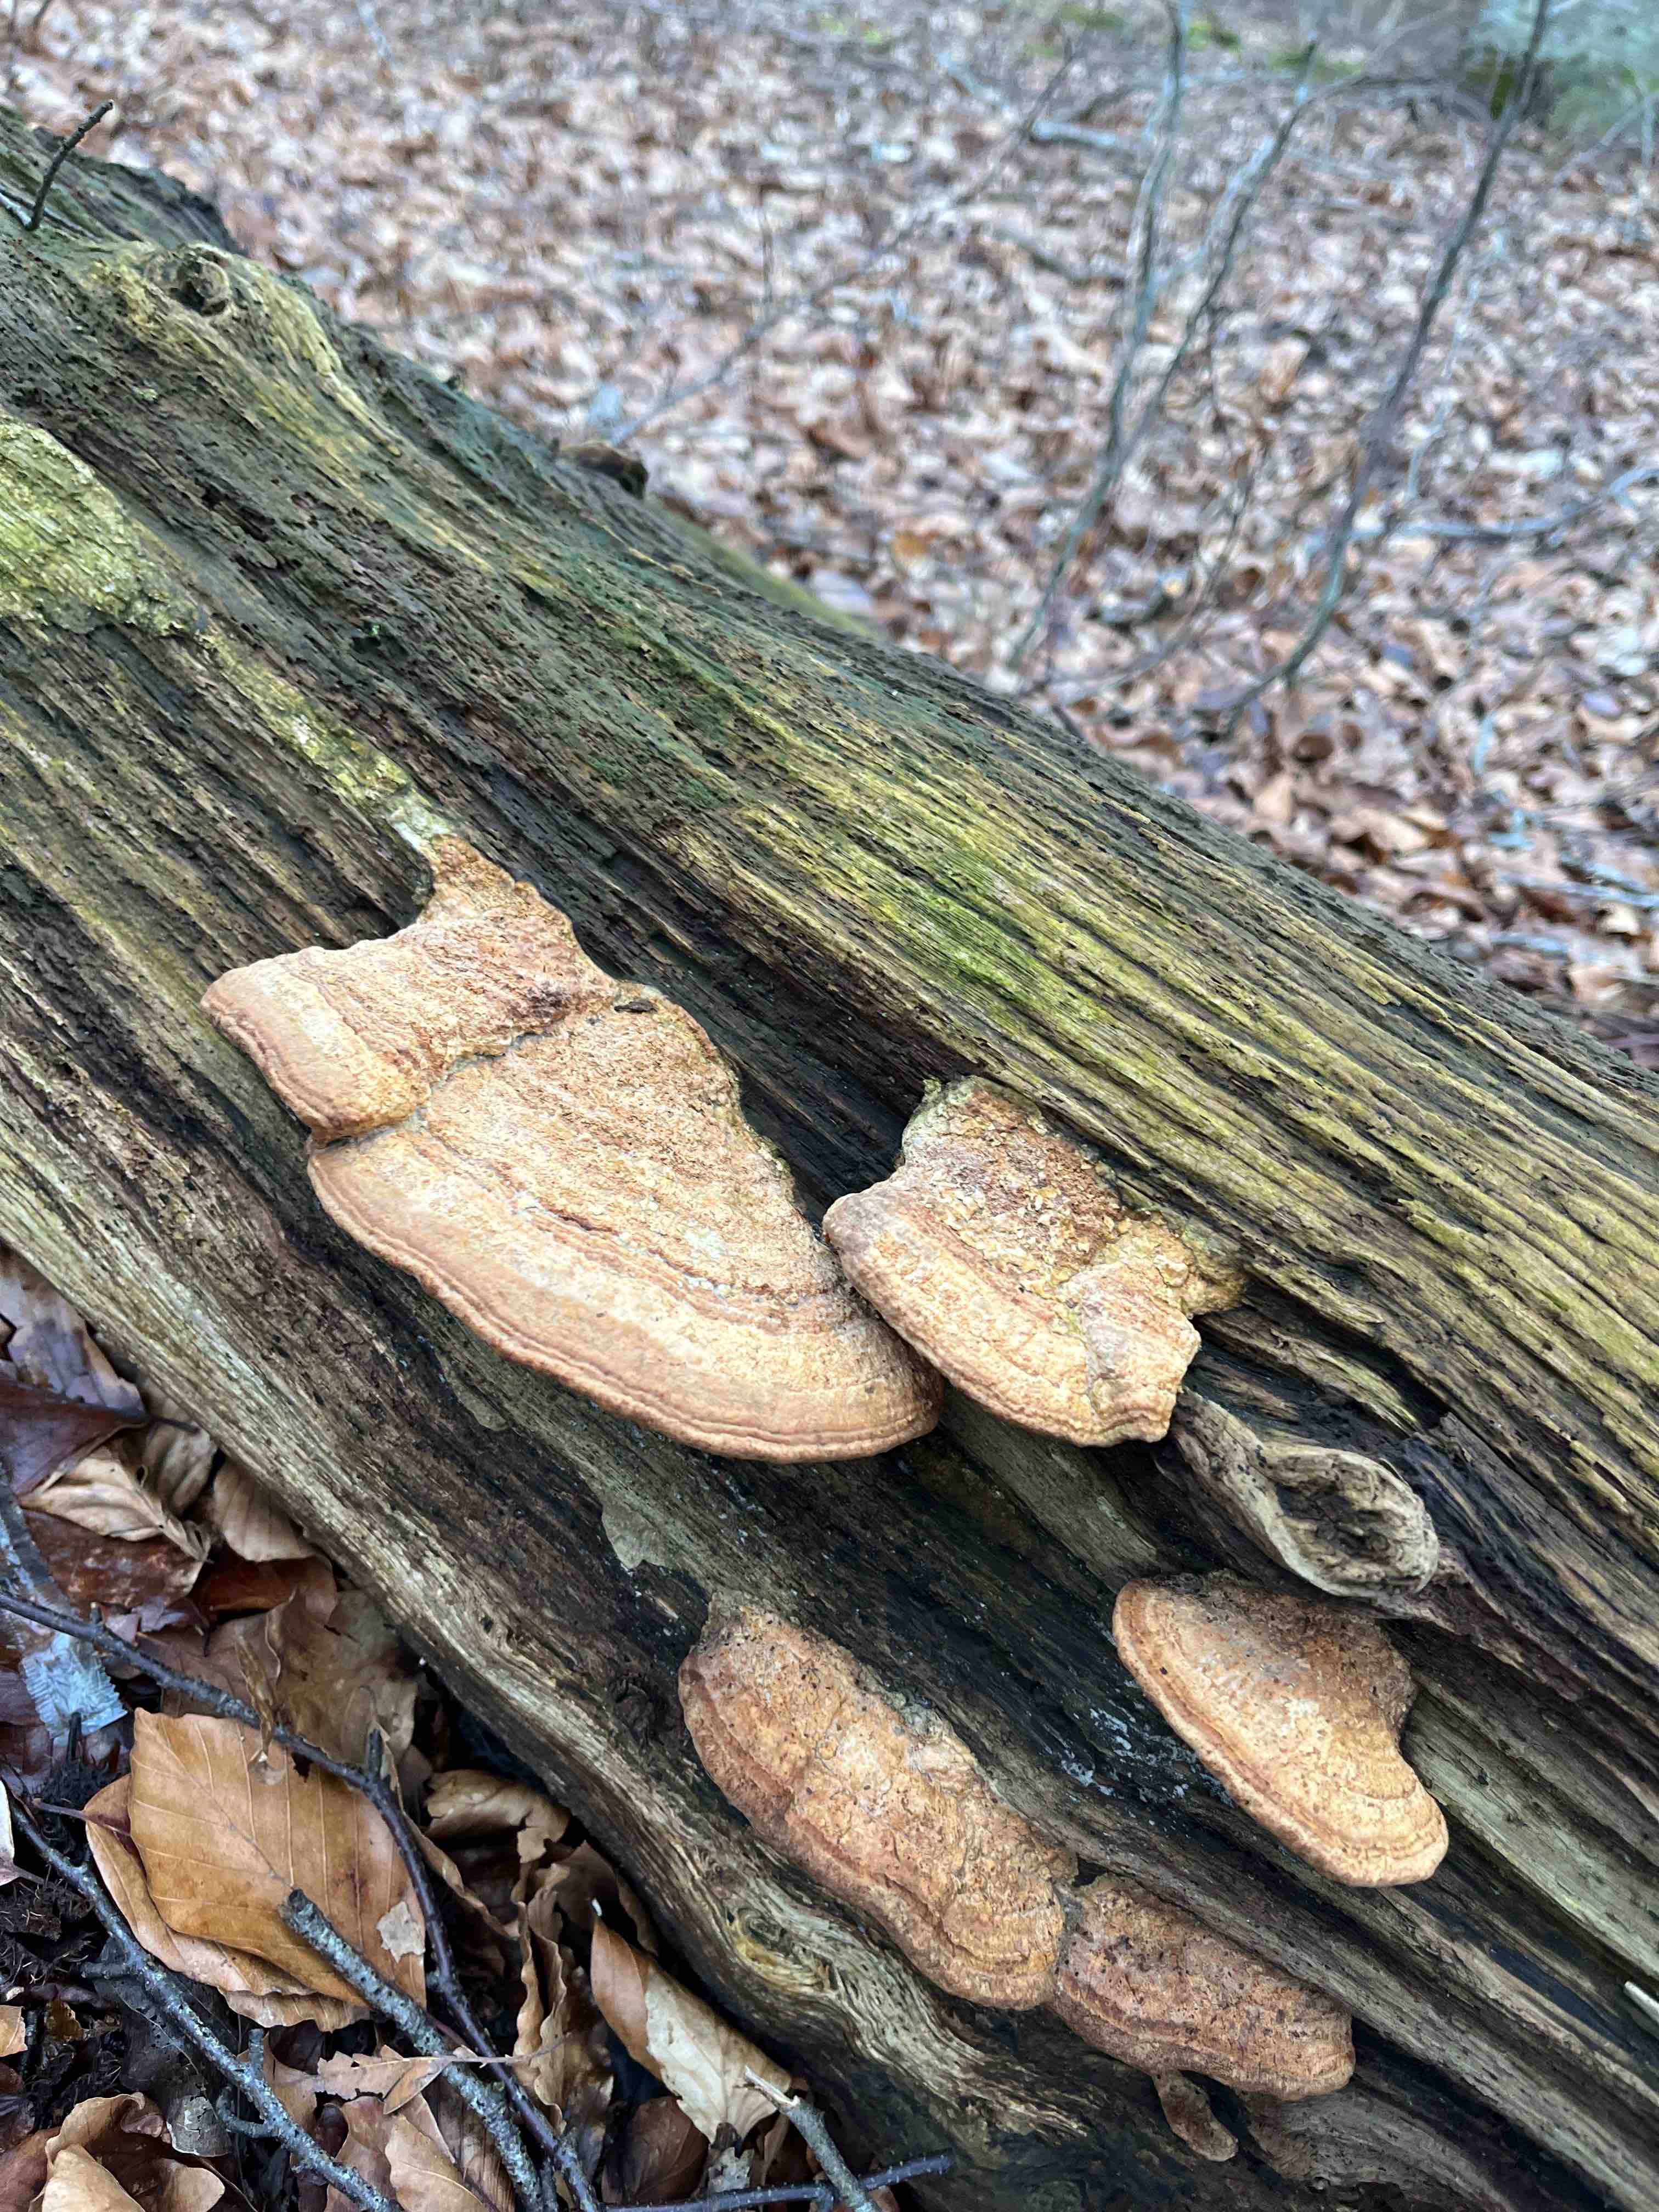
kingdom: Fungi
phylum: Basidiomycota
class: Agaricomycetes
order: Polyporales
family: Fomitopsidaceae
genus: Daedalea
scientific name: Daedalea quercina
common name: ege-labyrintsvamp
